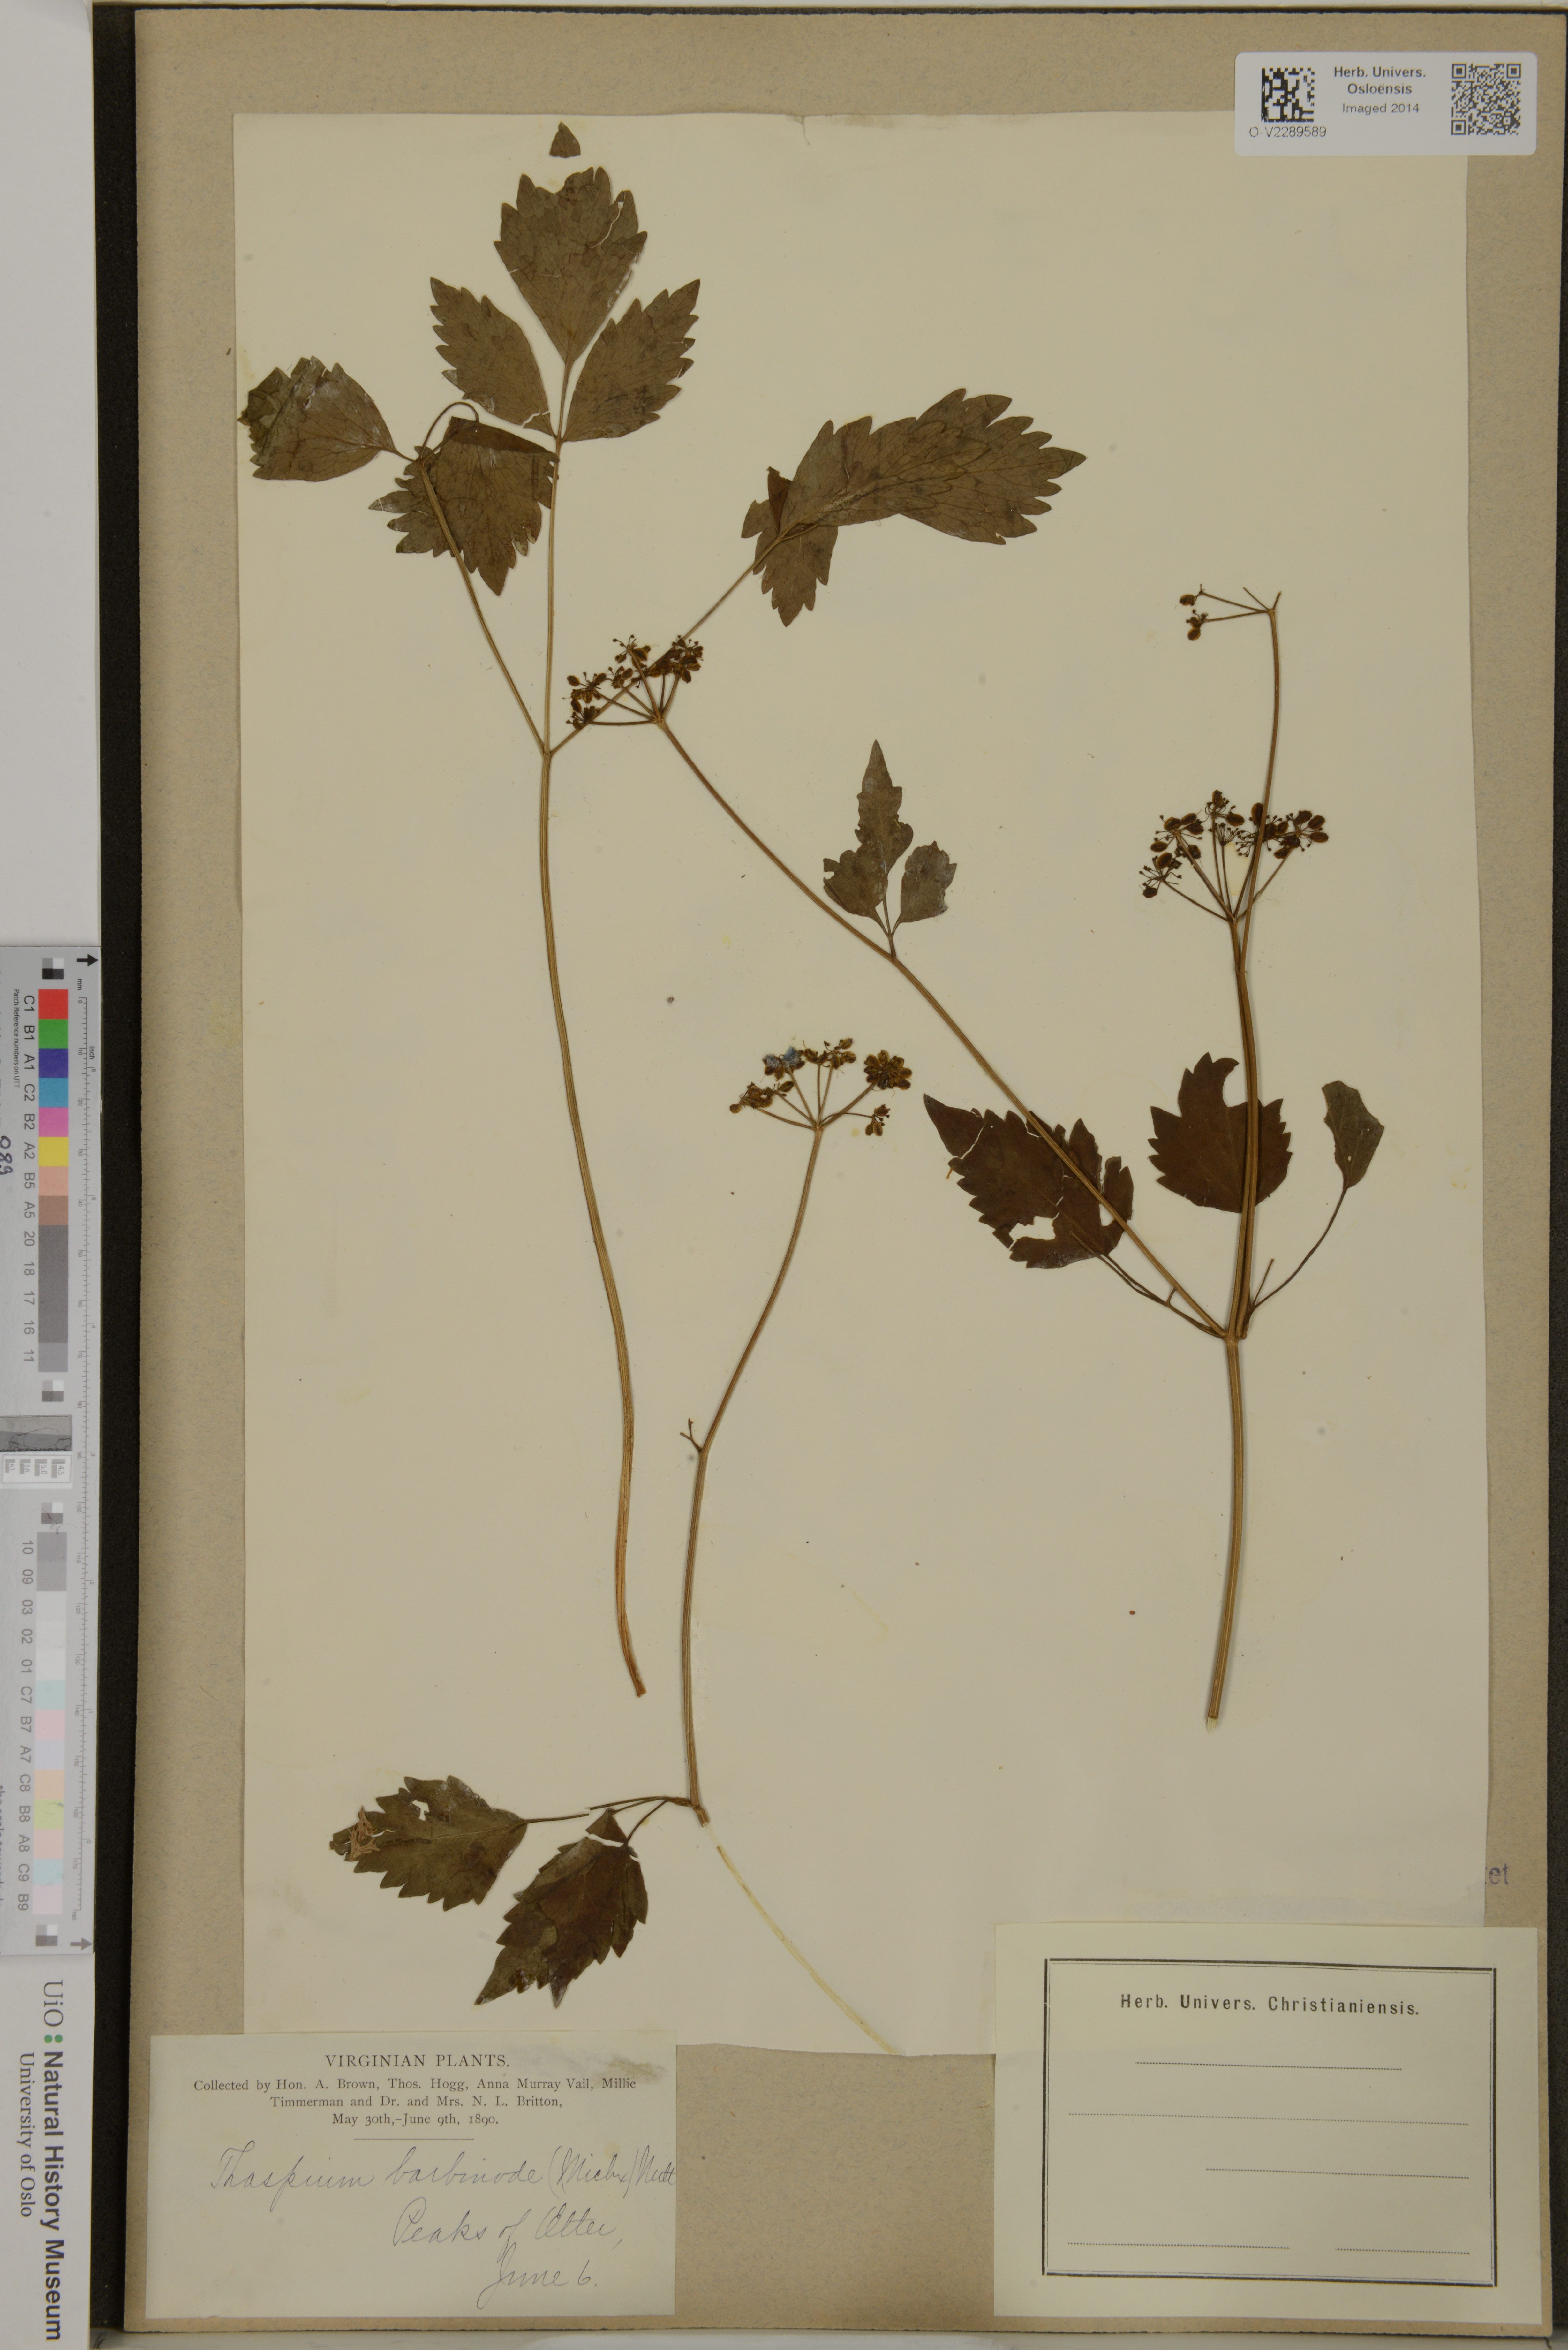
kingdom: Plantae
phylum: Tracheophyta
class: Magnoliopsida
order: Apiales
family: Apiaceae
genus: Thaspium
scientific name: Thaspium barbinode
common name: Bearded meadow-parsnip
